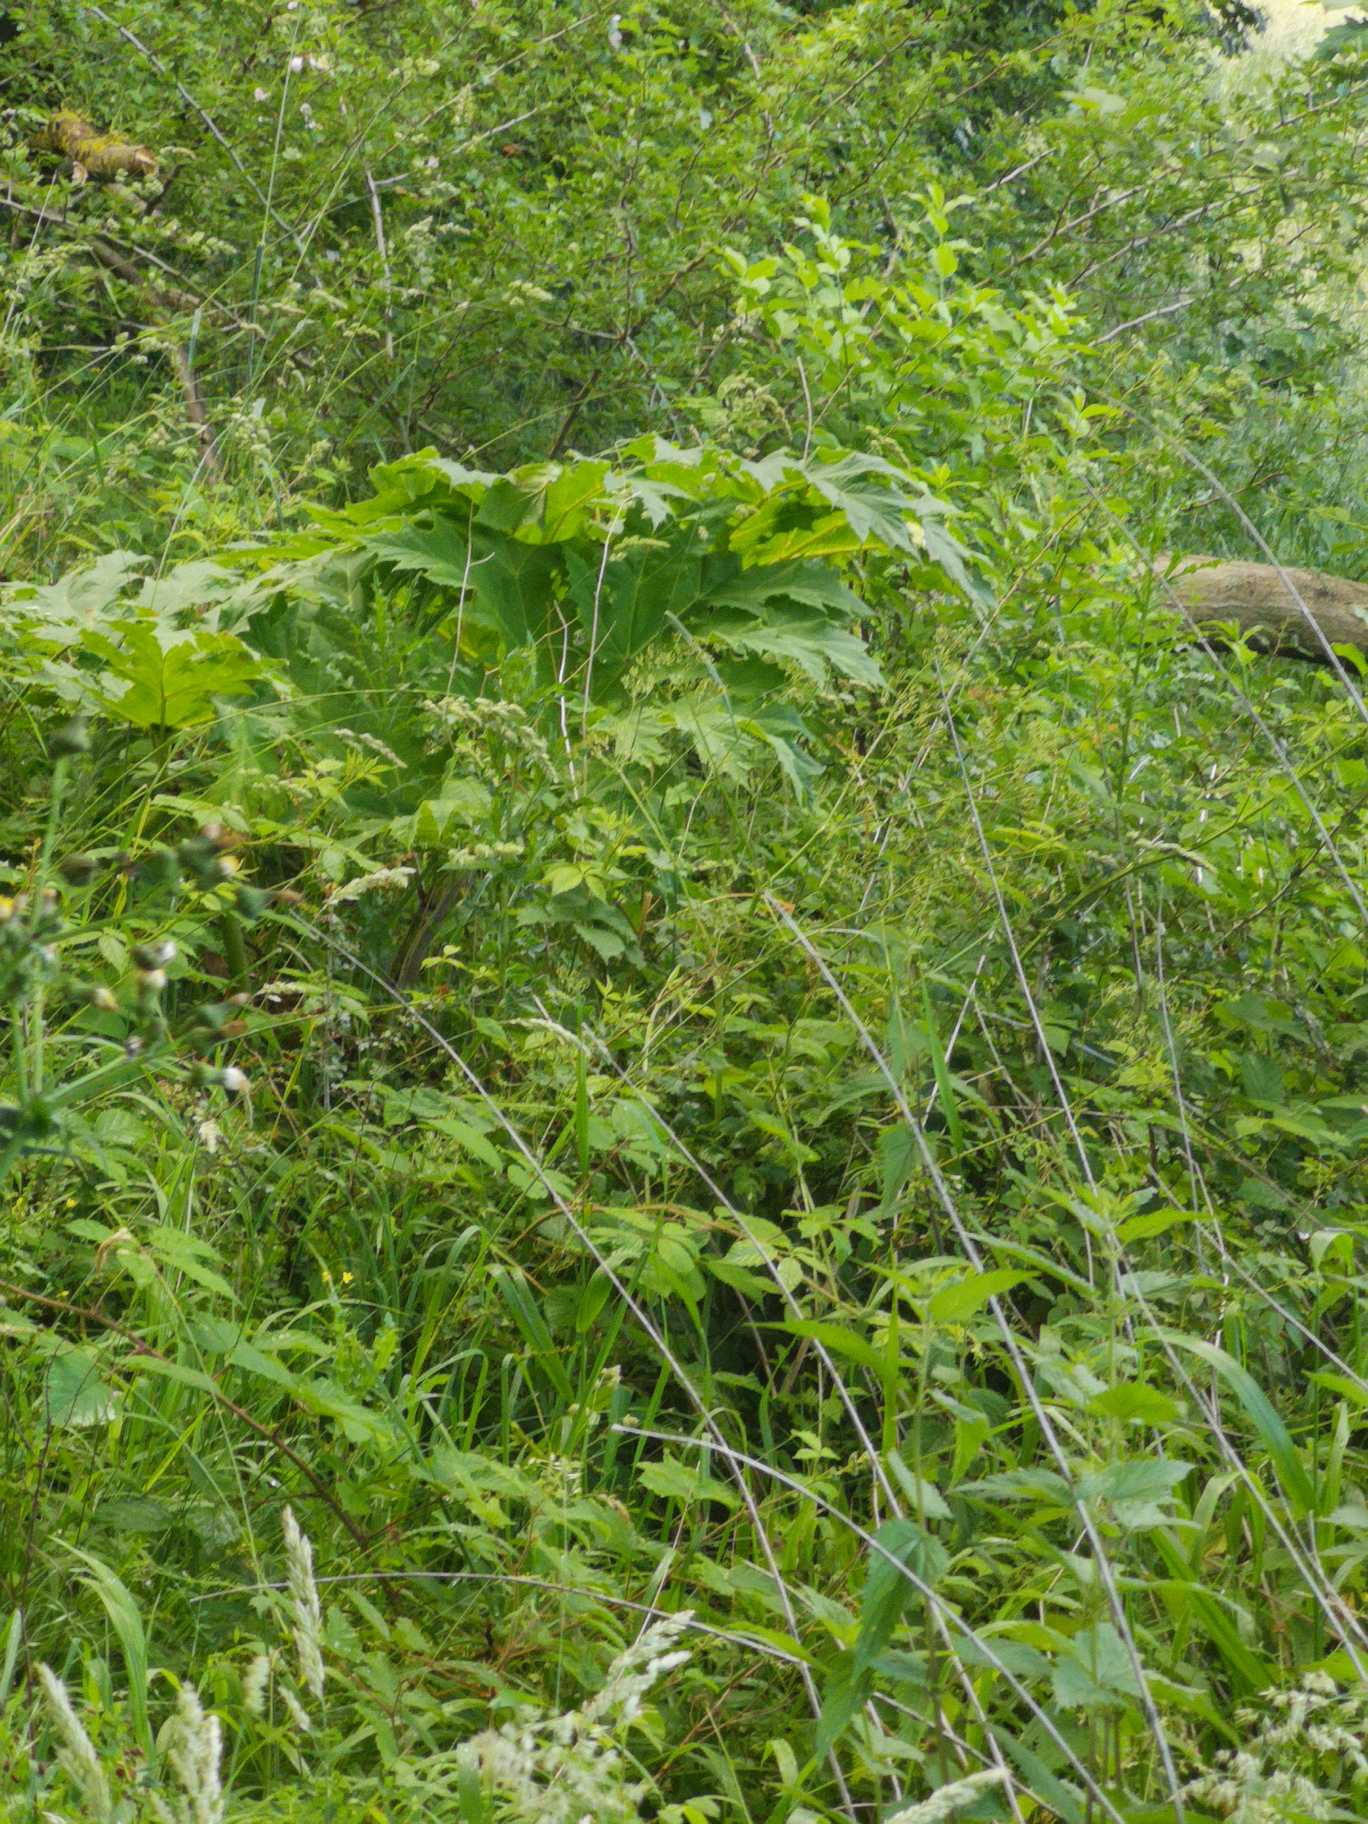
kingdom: Plantae
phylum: Tracheophyta
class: Magnoliopsida
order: Apiales
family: Apiaceae
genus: Heracleum
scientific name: Heracleum mantegazzianum
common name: Kæmpe-bjørneklo
